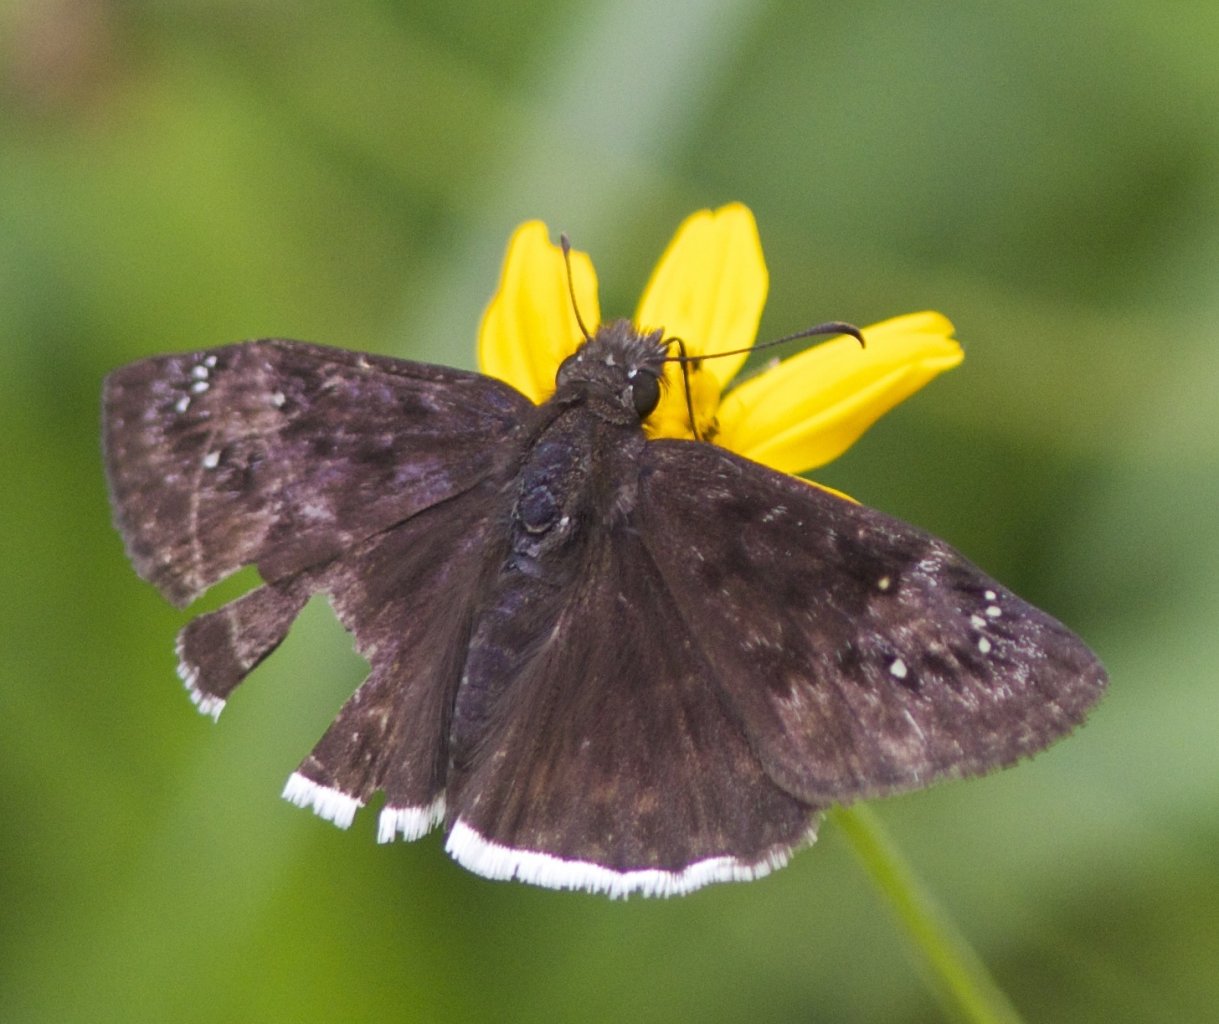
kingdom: Animalia
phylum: Arthropoda
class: Insecta
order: Lepidoptera
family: Hesperiidae
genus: Erynnis
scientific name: Erynnis tristis
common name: Mournful Duskywing
